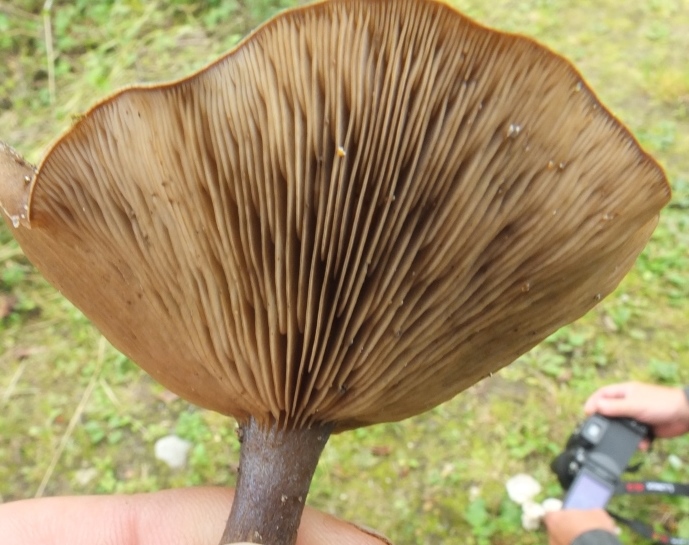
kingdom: Fungi
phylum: Basidiomycota
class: Agaricomycetes
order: Agaricales
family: Tricholomataceae
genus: Melanoleuca
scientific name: Melanoleuca
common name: munkehat
